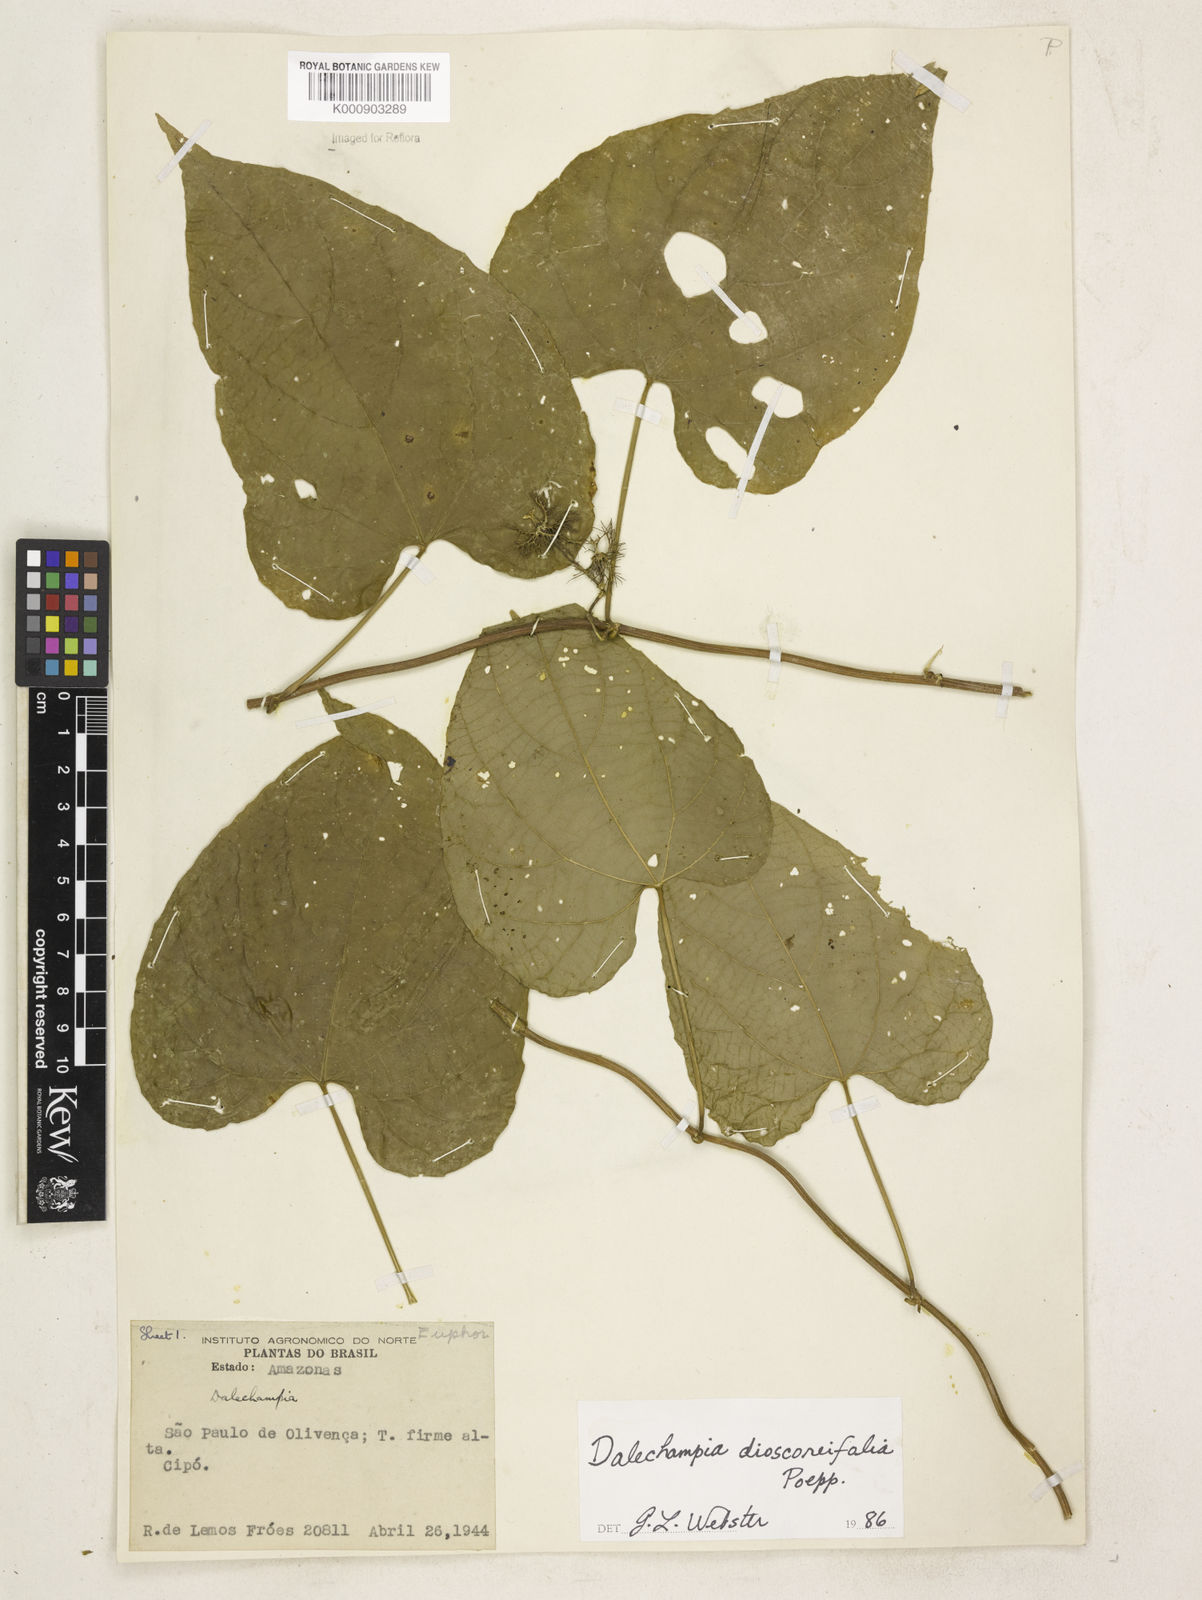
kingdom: Plantae
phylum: Tracheophyta
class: Magnoliopsida
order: Malpighiales
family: Euphorbiaceae
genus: Dalechampia
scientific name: Dalechampia dioscoreifolia
